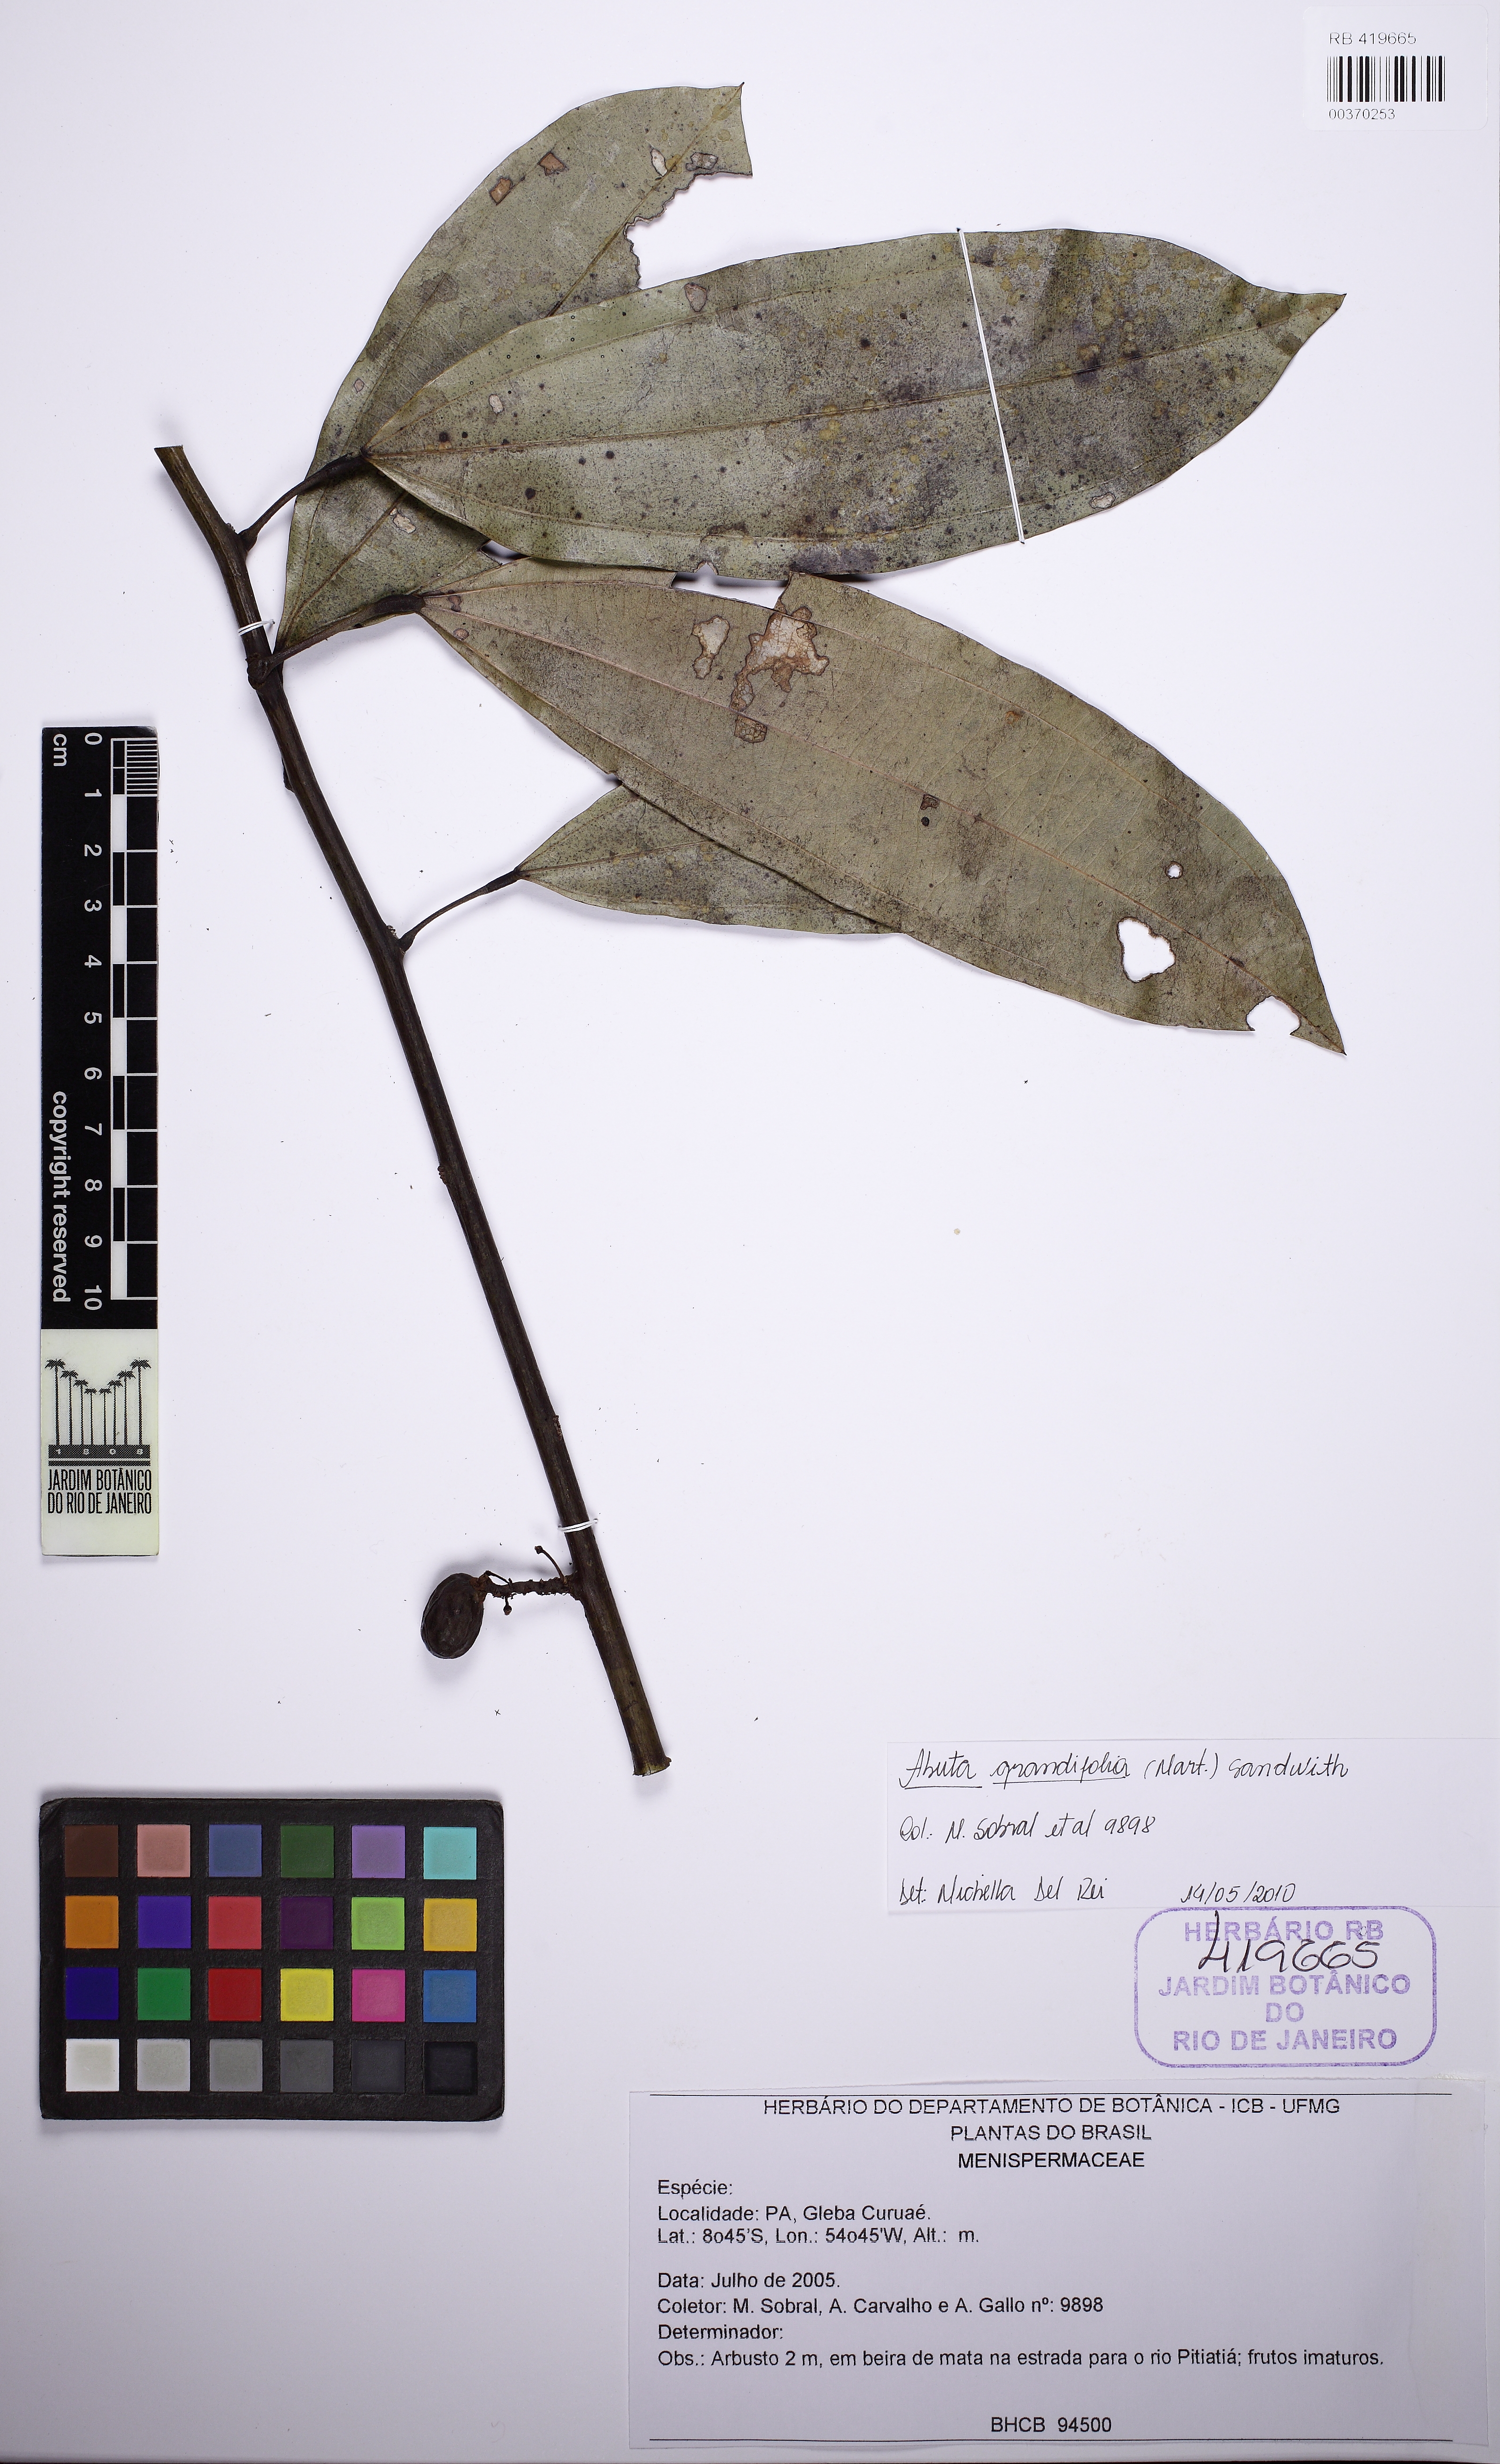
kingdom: Plantae
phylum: Tracheophyta
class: Magnoliopsida
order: Ranunculales
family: Menispermaceae
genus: Abuta
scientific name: Abuta grandifolia
